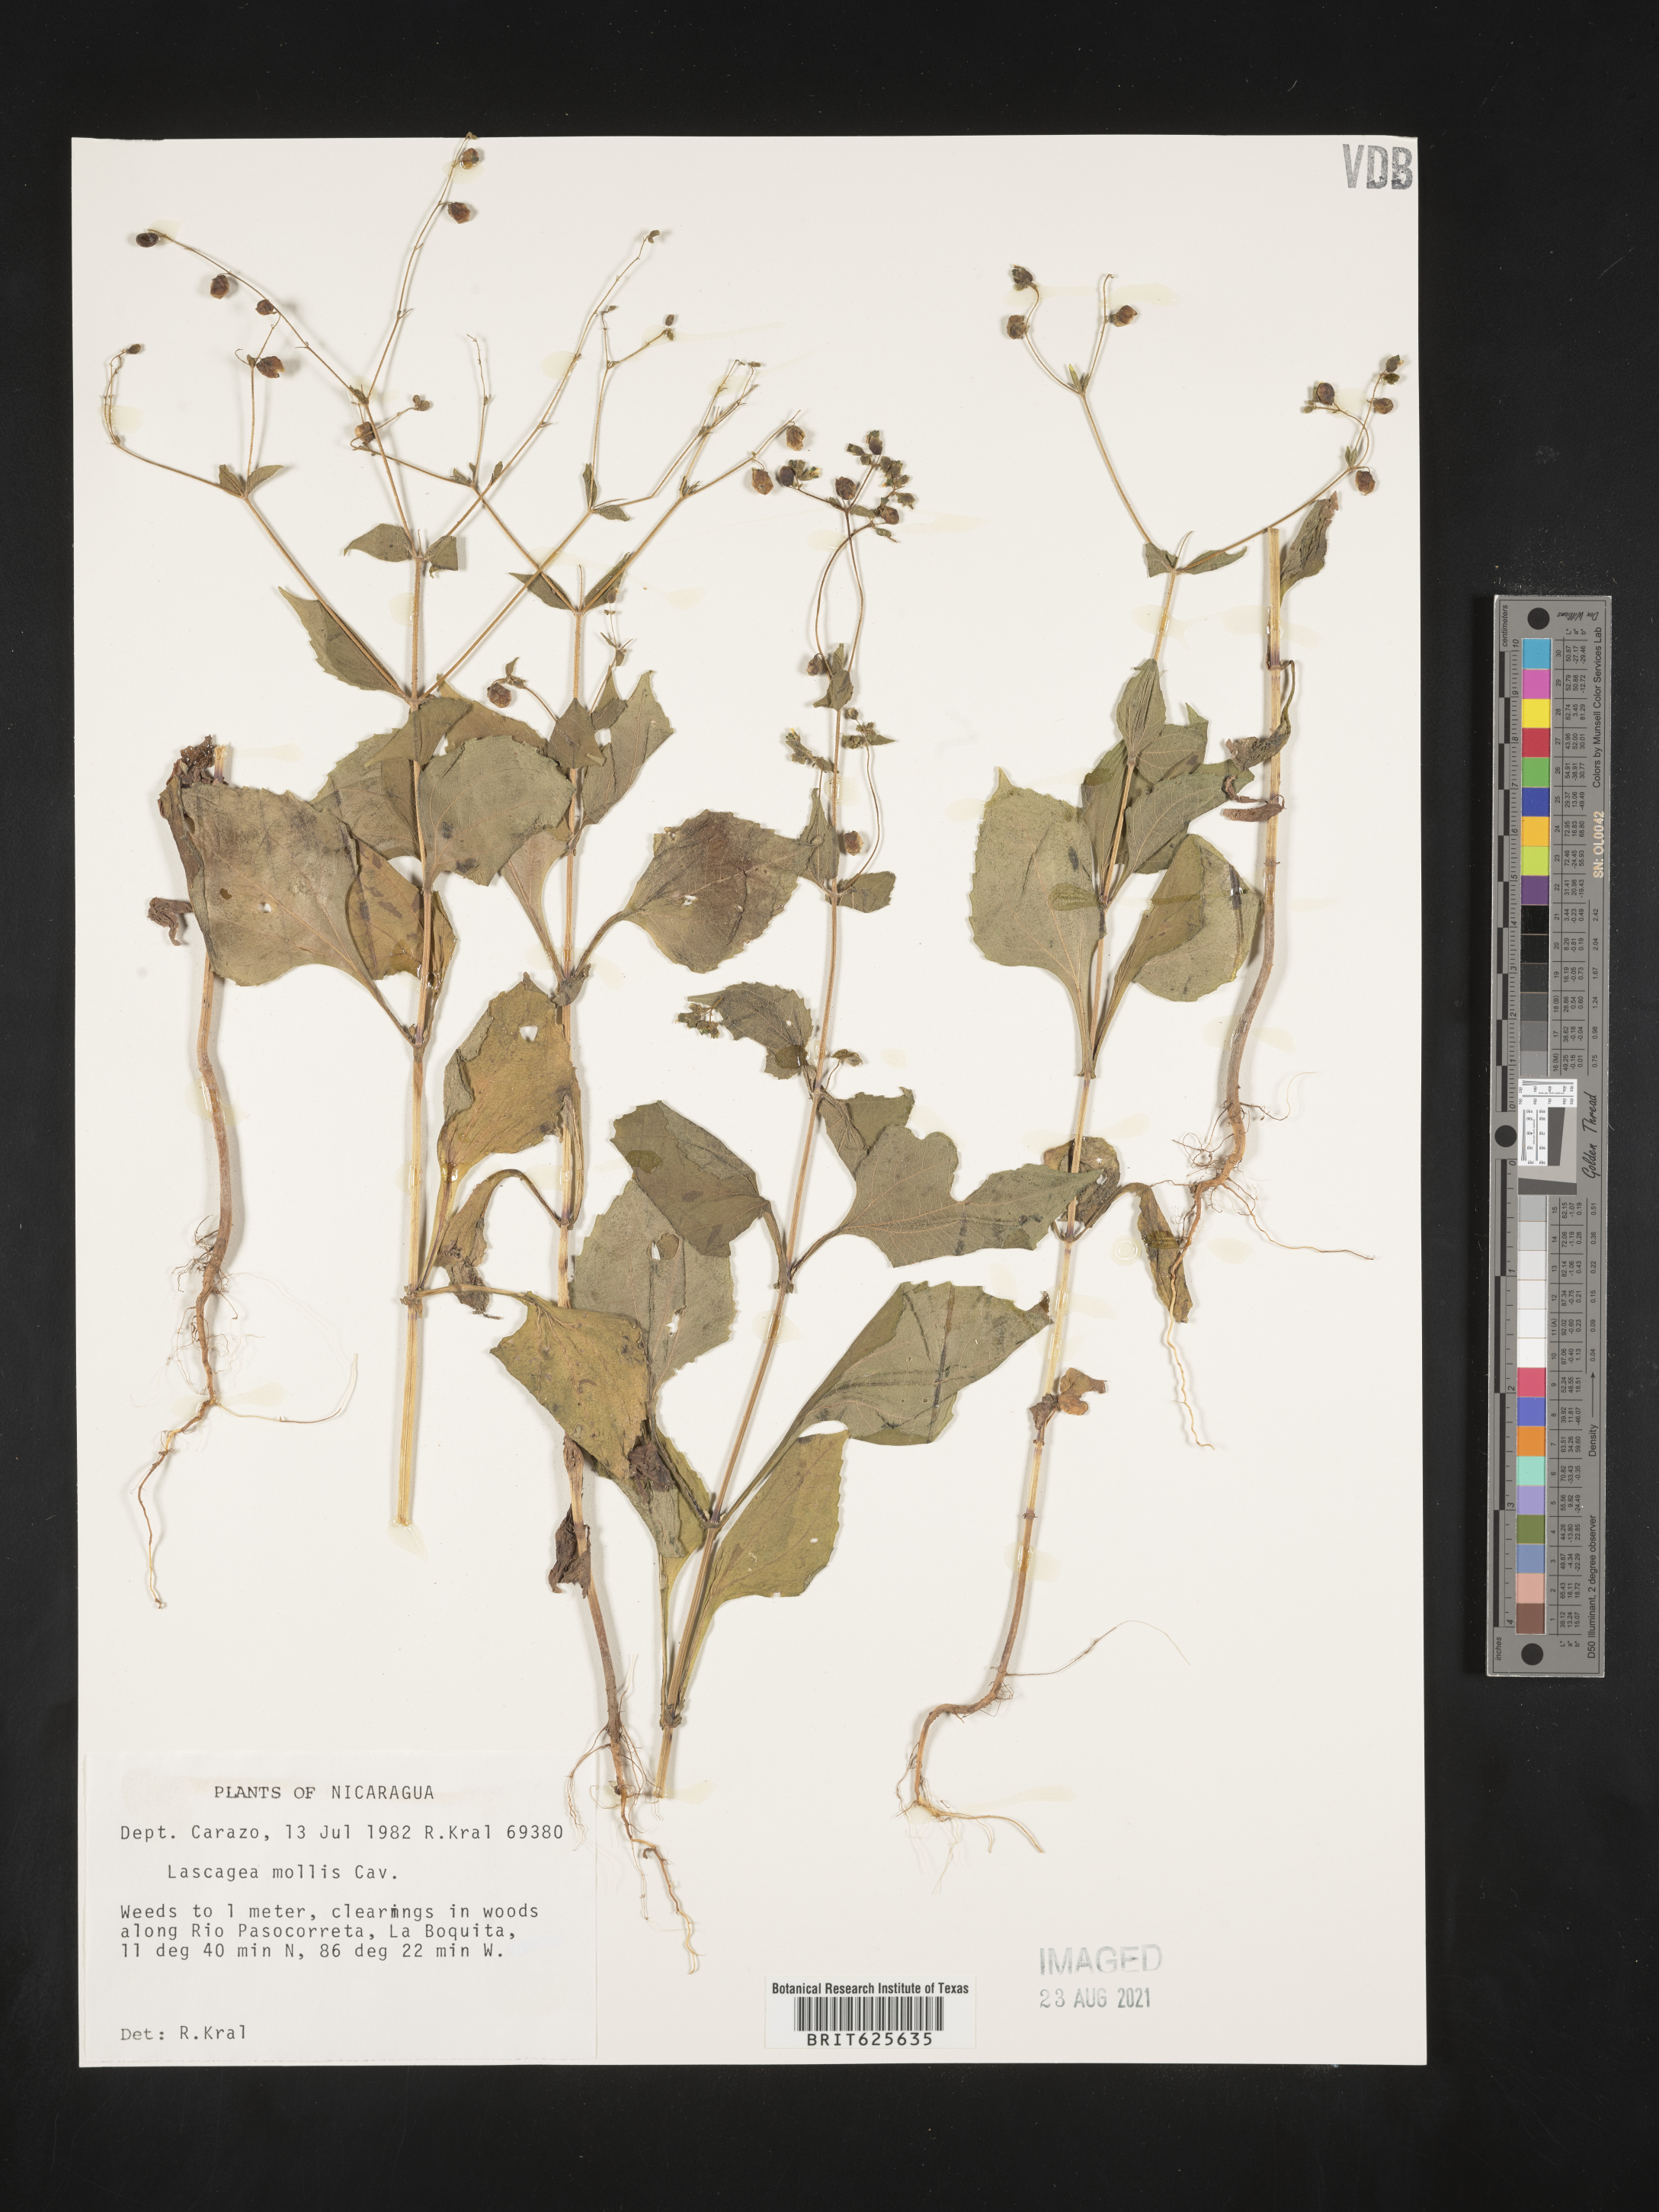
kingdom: Plantae
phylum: Tracheophyta
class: Magnoliopsida
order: Asterales
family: Asteraceae
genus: Lagascea
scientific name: Lagascea decipiens
